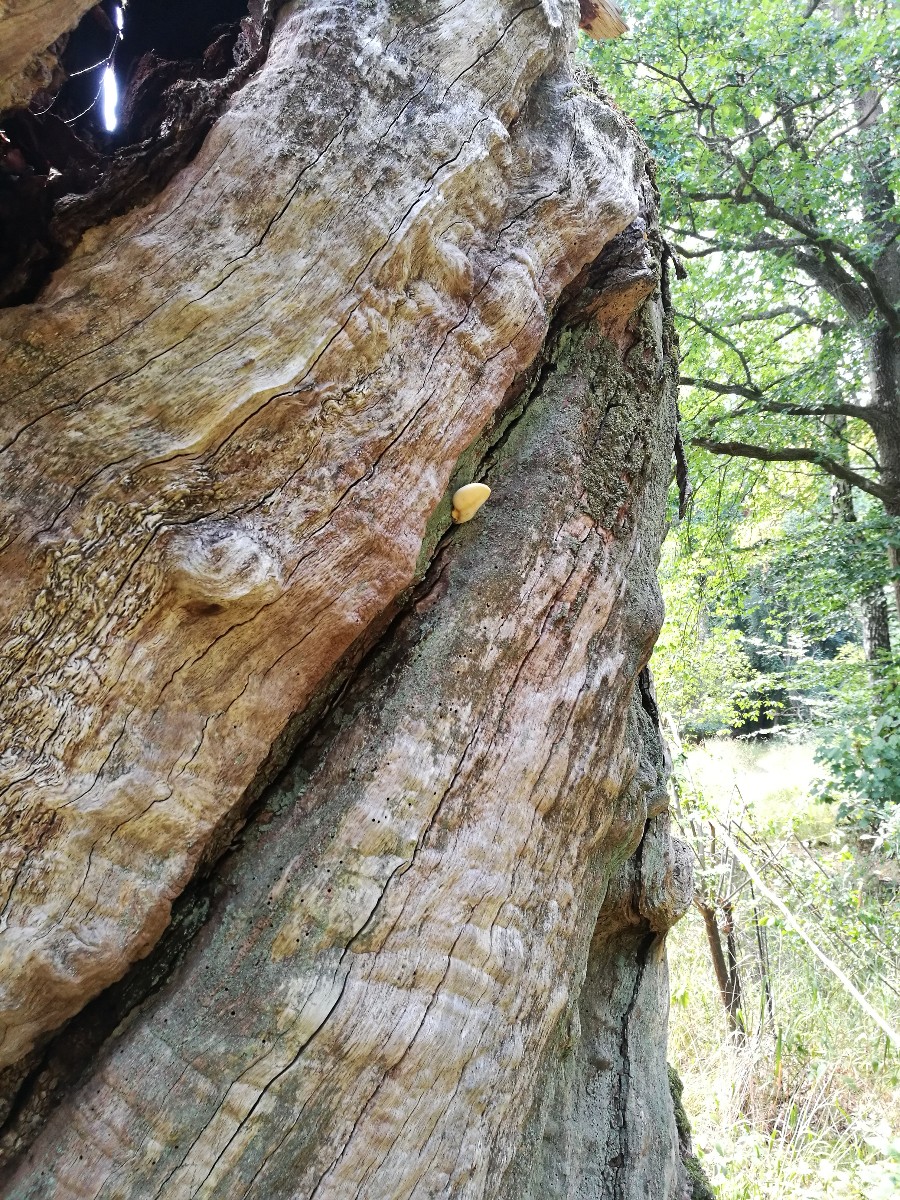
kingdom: Fungi
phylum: Basidiomycota
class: Agaricomycetes
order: Polyporales
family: Fomitopsidaceae
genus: Buglossoporus
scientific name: Buglossoporus quercinus
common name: egetunge
